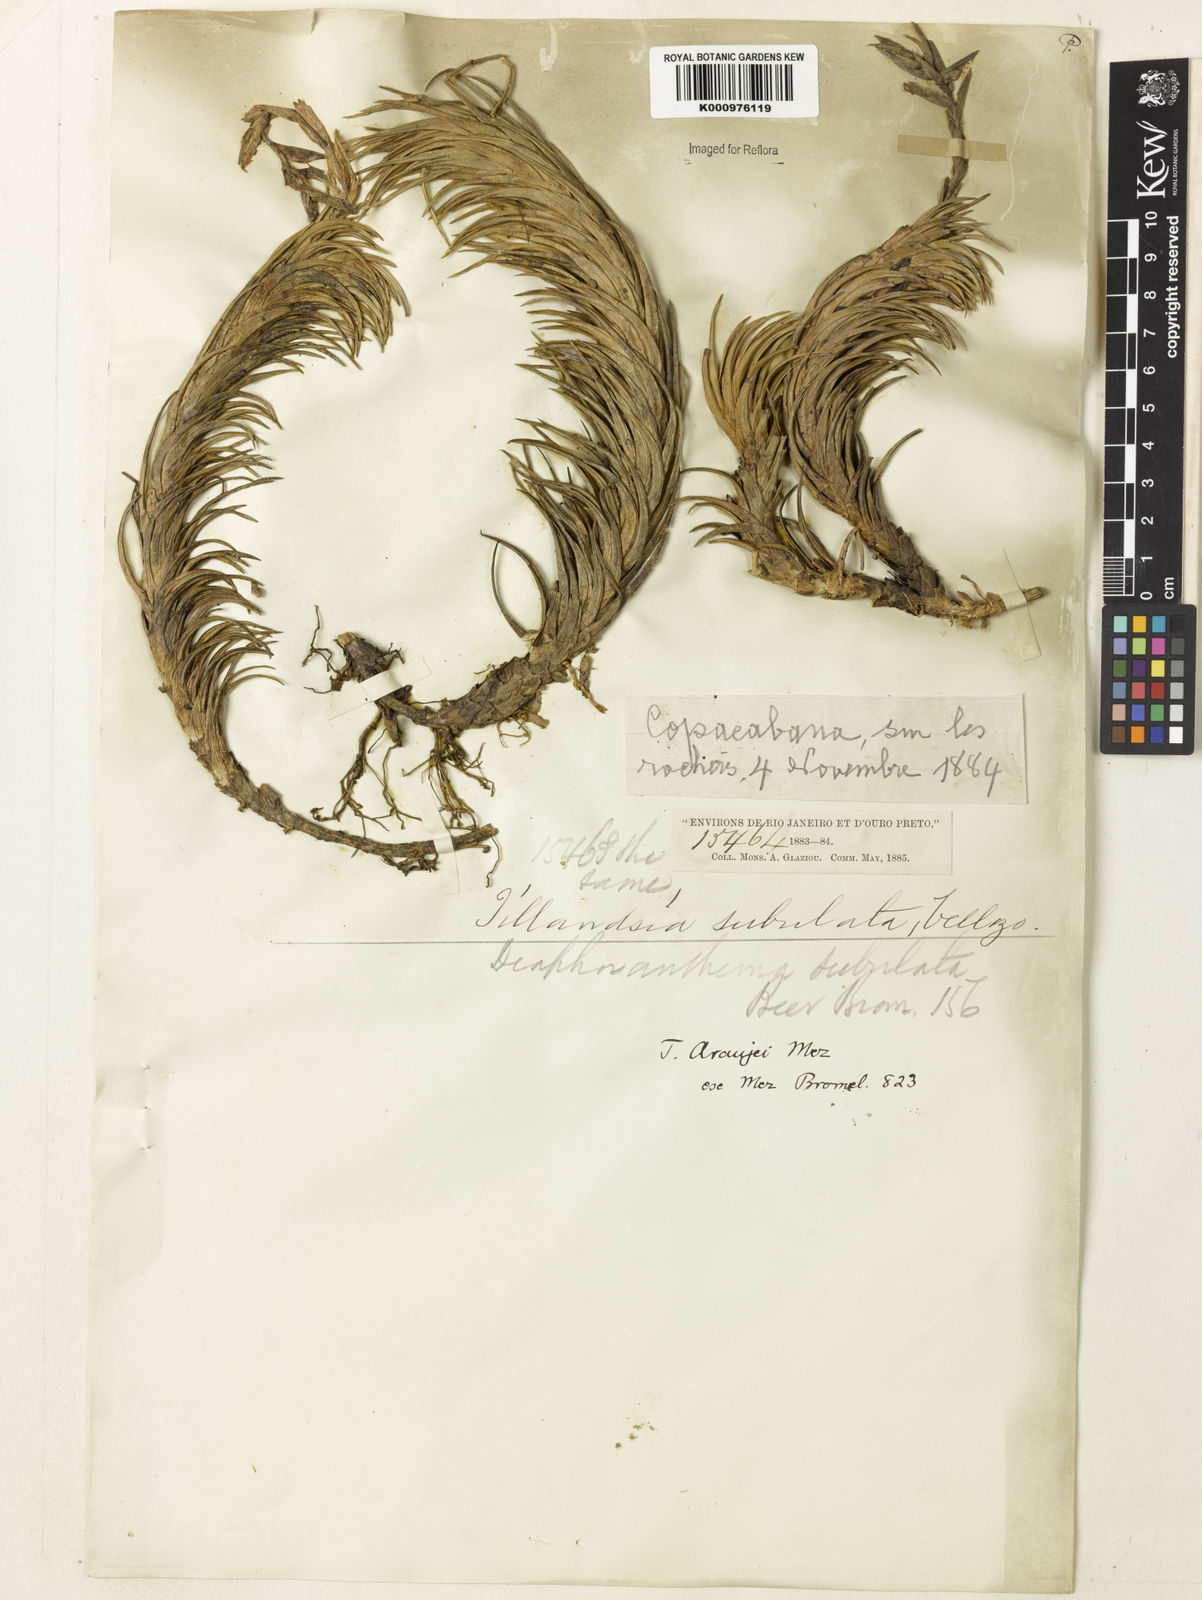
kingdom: Plantae
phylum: Tracheophyta
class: Liliopsida
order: Poales
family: Bromeliaceae
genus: Tillandsia
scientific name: Tillandsia araujei
